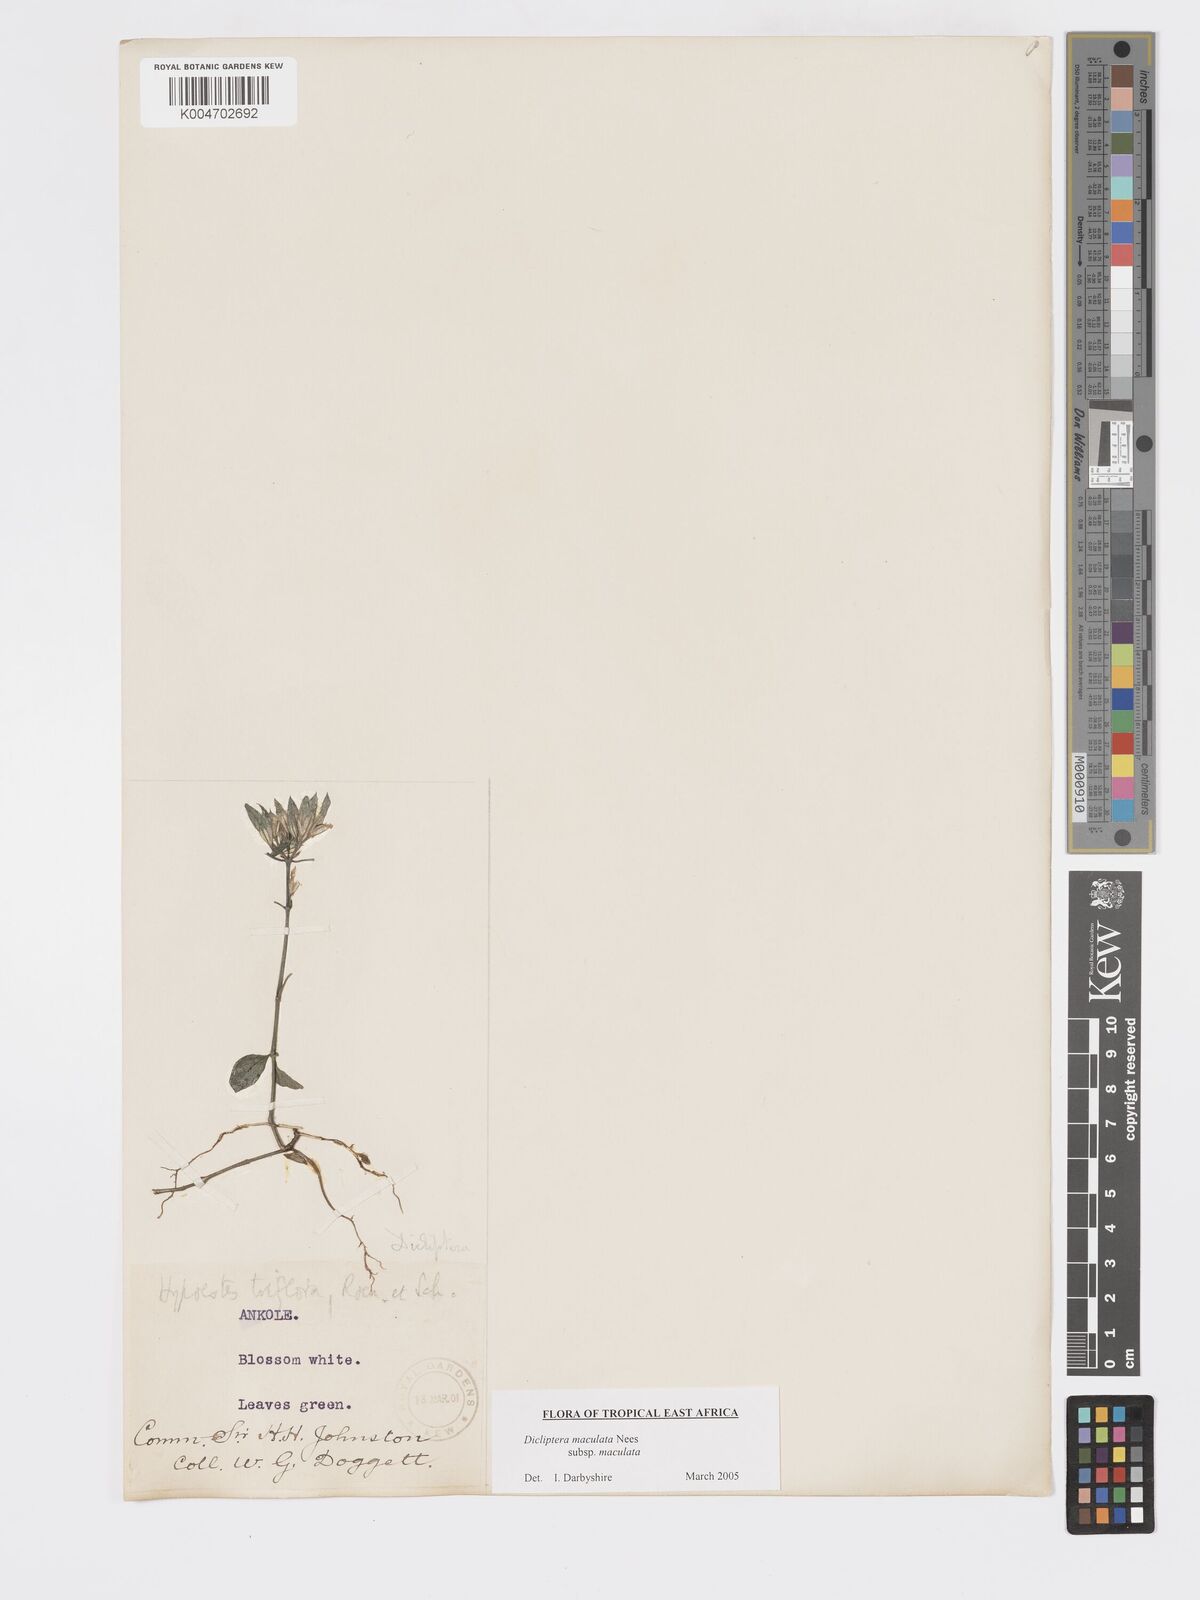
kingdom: Plantae
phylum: Tracheophyta
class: Magnoliopsida
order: Lamiales
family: Acanthaceae
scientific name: Acanthaceae
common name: Acanthaceae
